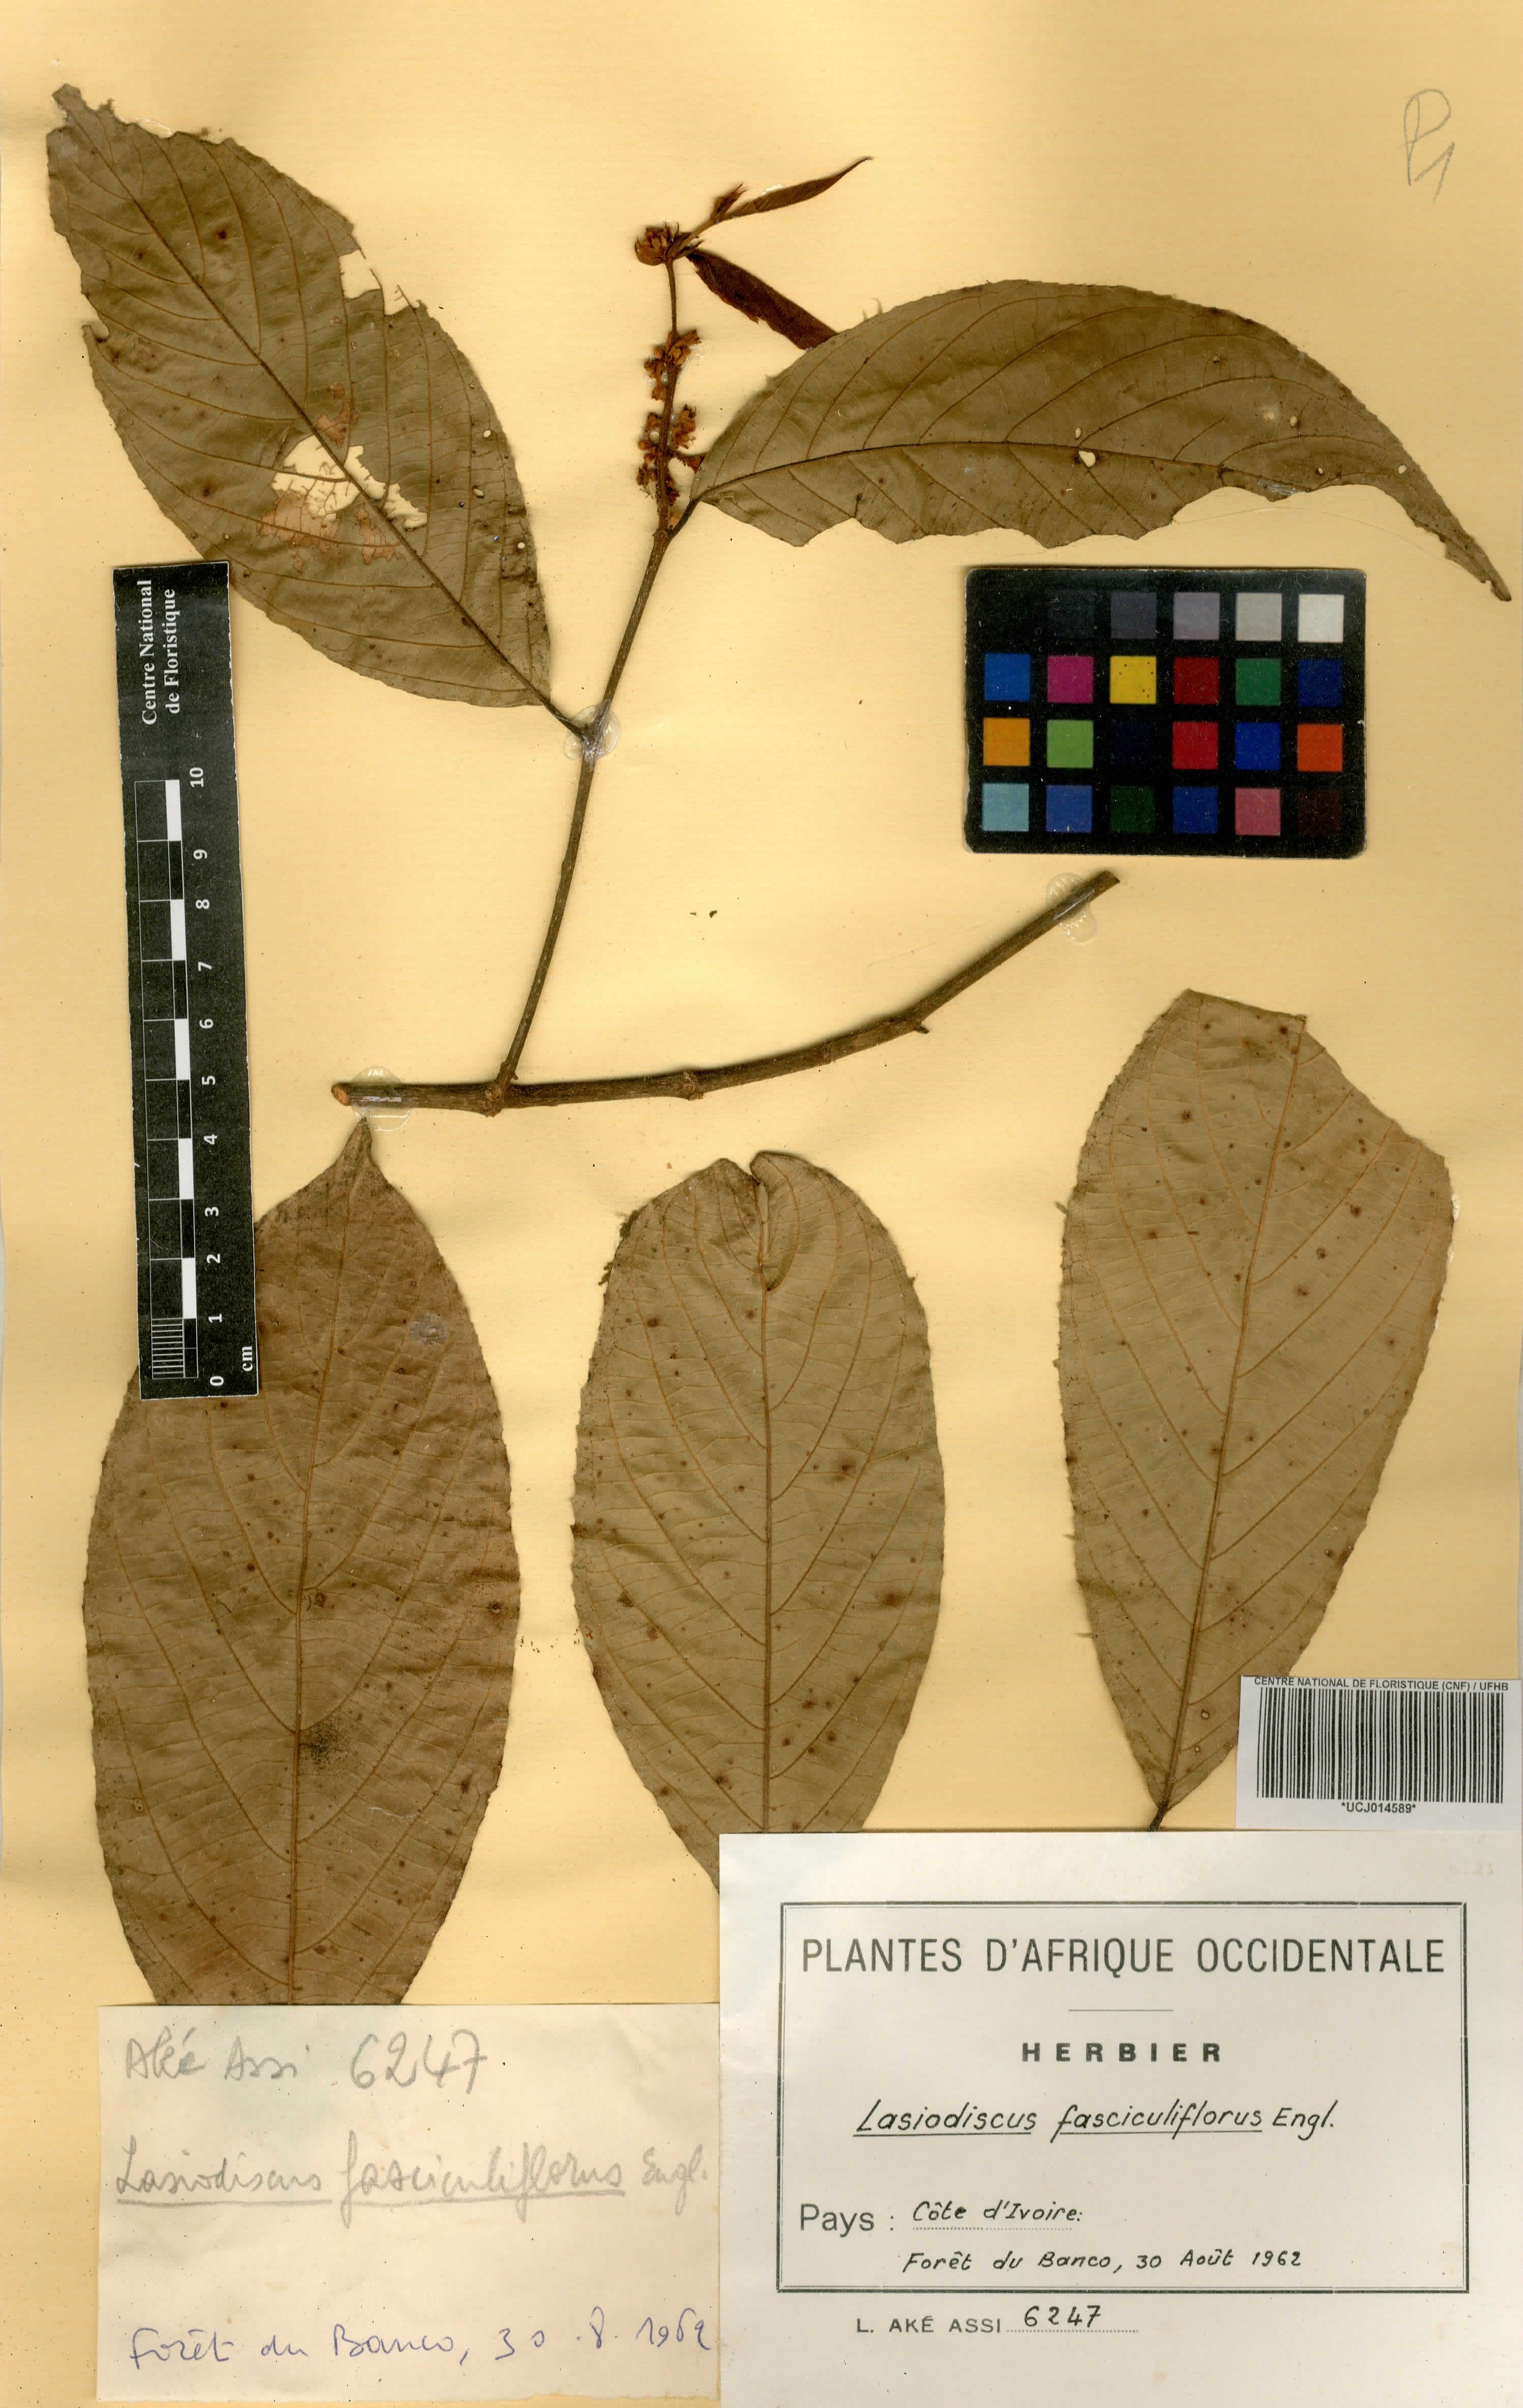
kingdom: Plantae
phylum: Tracheophyta
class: Magnoliopsida
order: Rosales
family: Rhamnaceae
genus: Lasiodiscus
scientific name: Lasiodiscus fasciculiflorus
